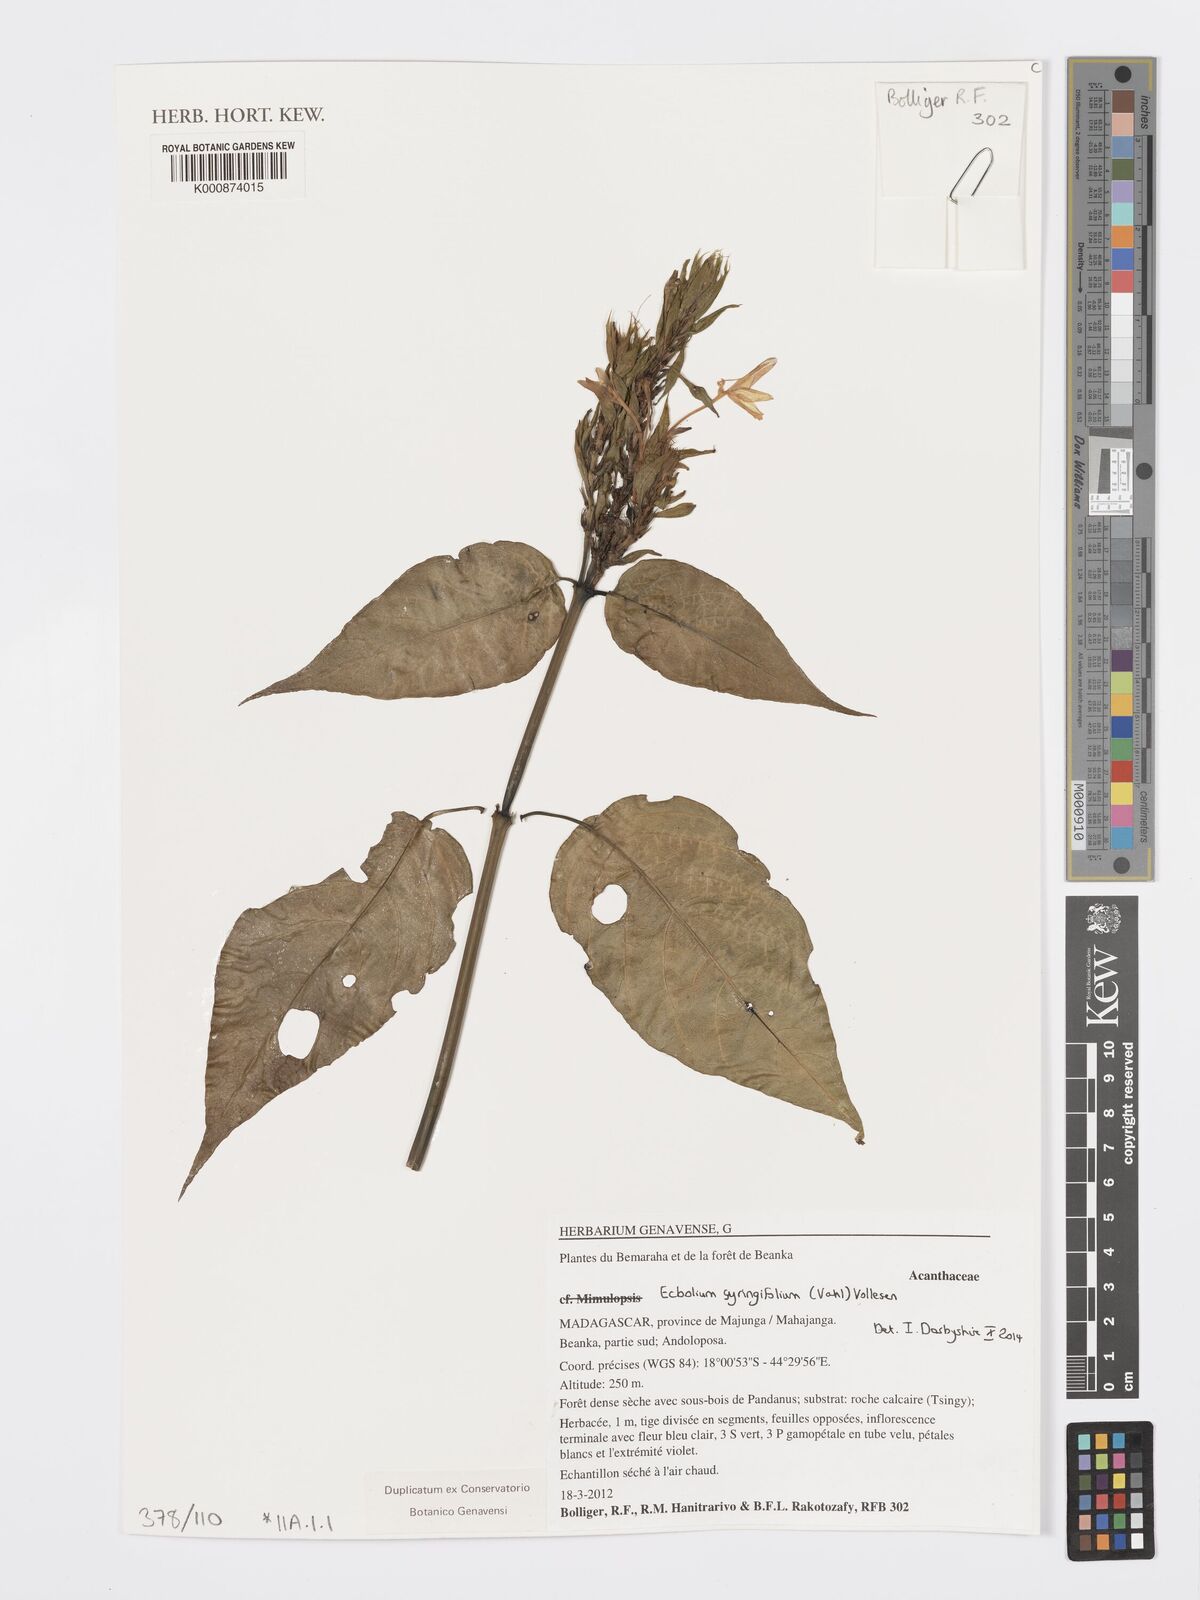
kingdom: Plantae
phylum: Tracheophyta
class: Magnoliopsida
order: Lamiales
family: Acanthaceae
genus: Ecbolium
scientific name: Ecbolium syringifolium
